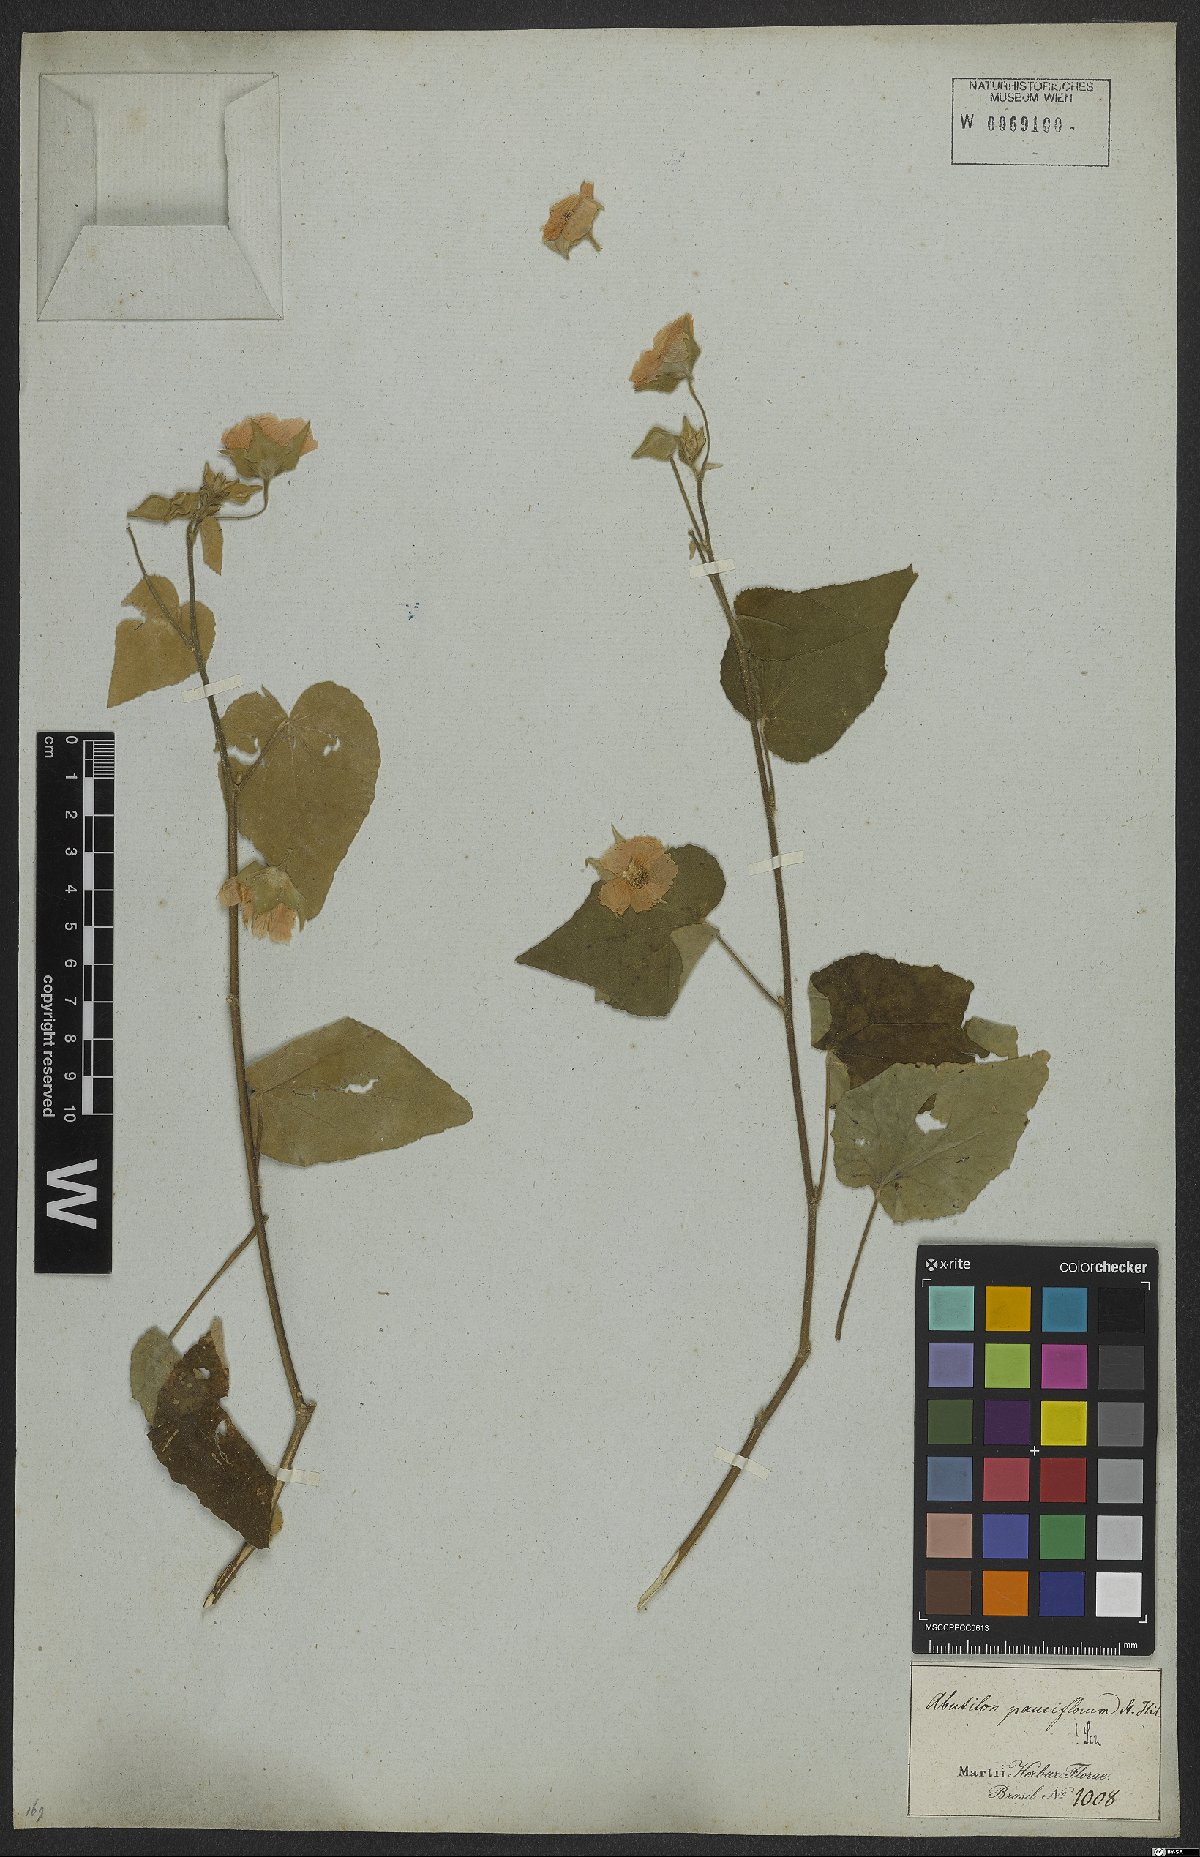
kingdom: Plantae
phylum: Tracheophyta
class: Magnoliopsida
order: Malvales
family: Malvaceae
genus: Callianthe
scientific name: Callianthe pauciflora
